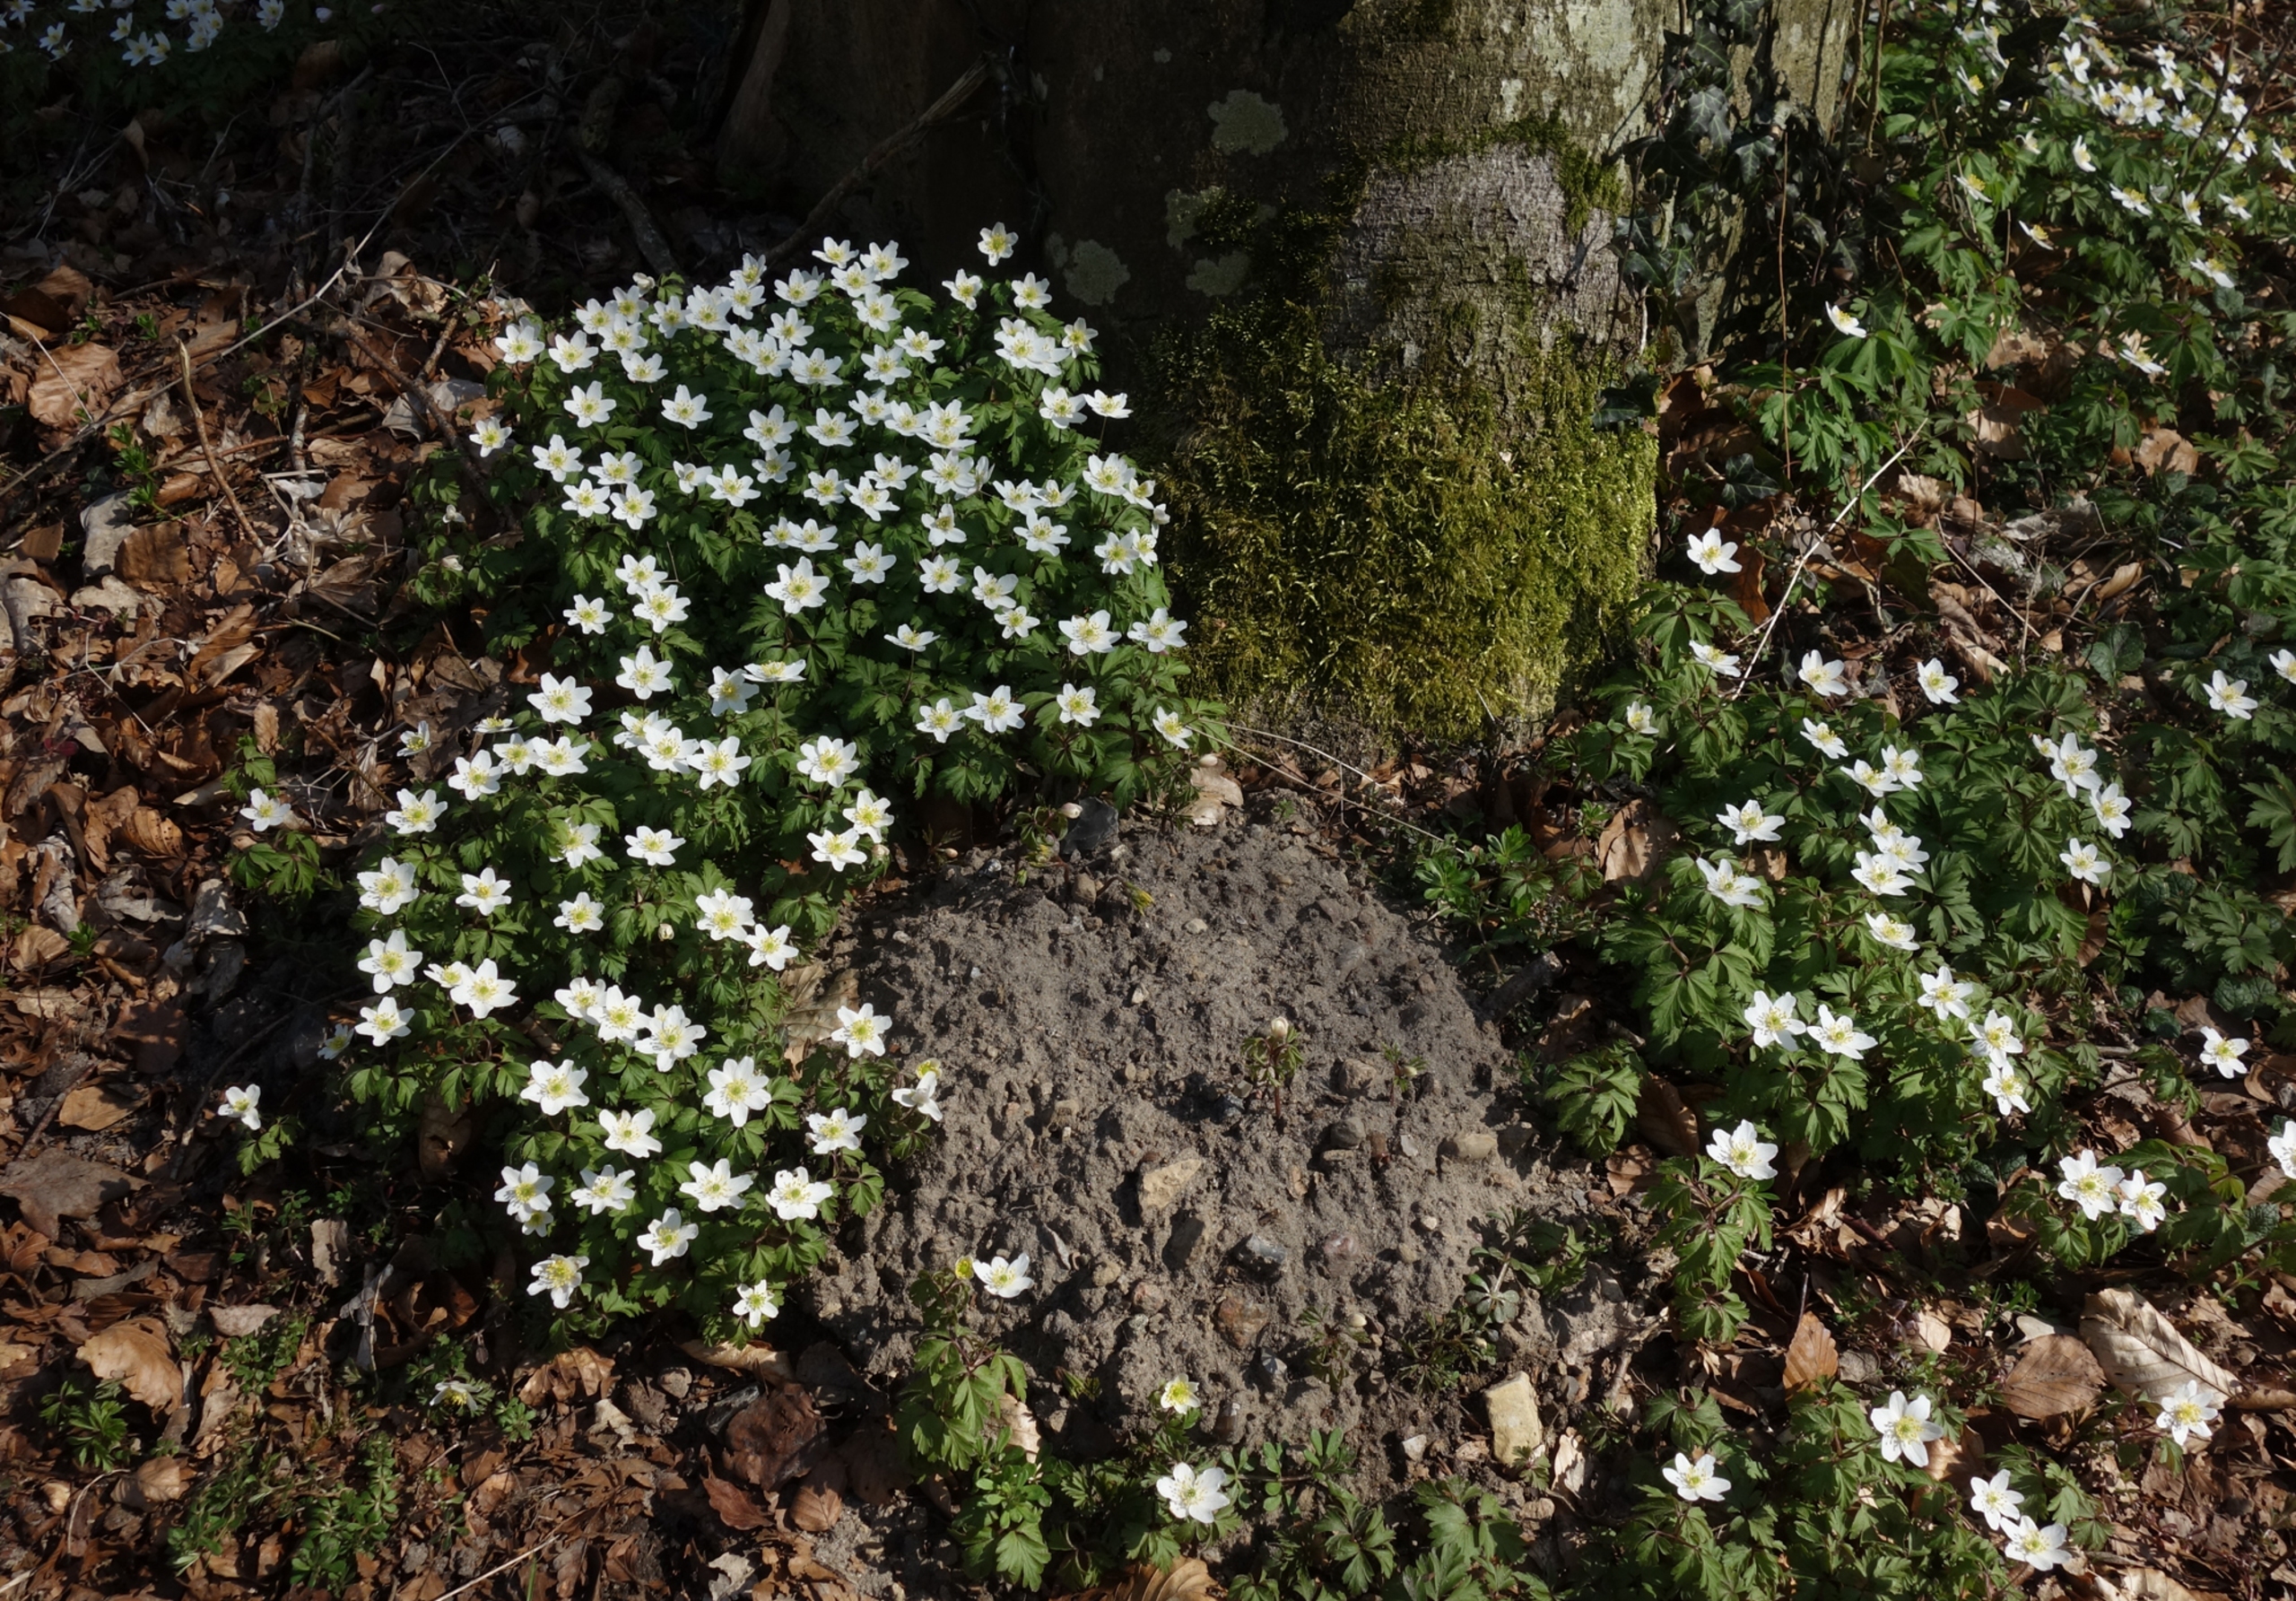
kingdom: Plantae
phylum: Tracheophyta
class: Magnoliopsida
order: Ranunculales
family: Ranunculaceae
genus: Anemone
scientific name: Anemone nemorosa
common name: Hvid anemone
